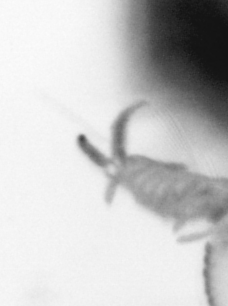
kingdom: Animalia
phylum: Annelida
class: Polychaeta
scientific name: Polychaeta
